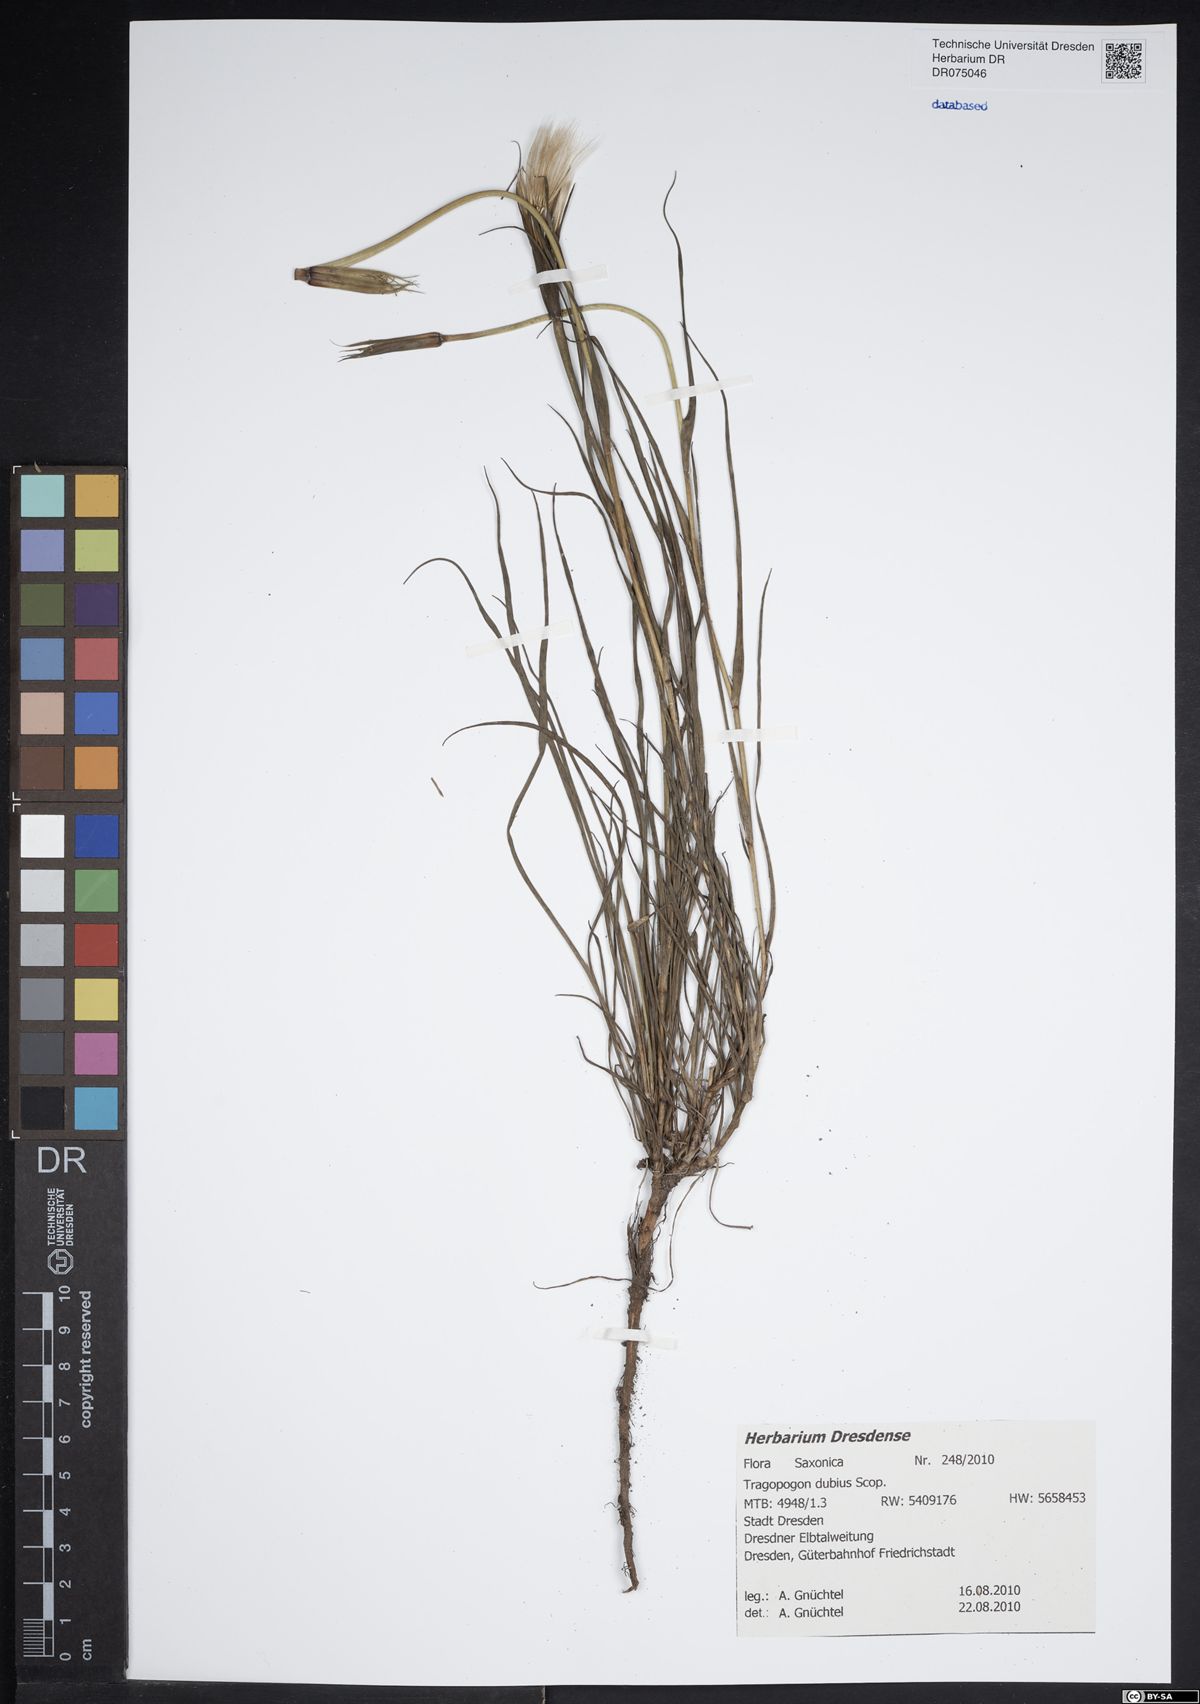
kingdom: Plantae
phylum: Tracheophyta
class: Magnoliopsida
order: Asterales
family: Asteraceae
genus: Tragopogon
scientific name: Tragopogon dubius
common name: Yellow salsify
